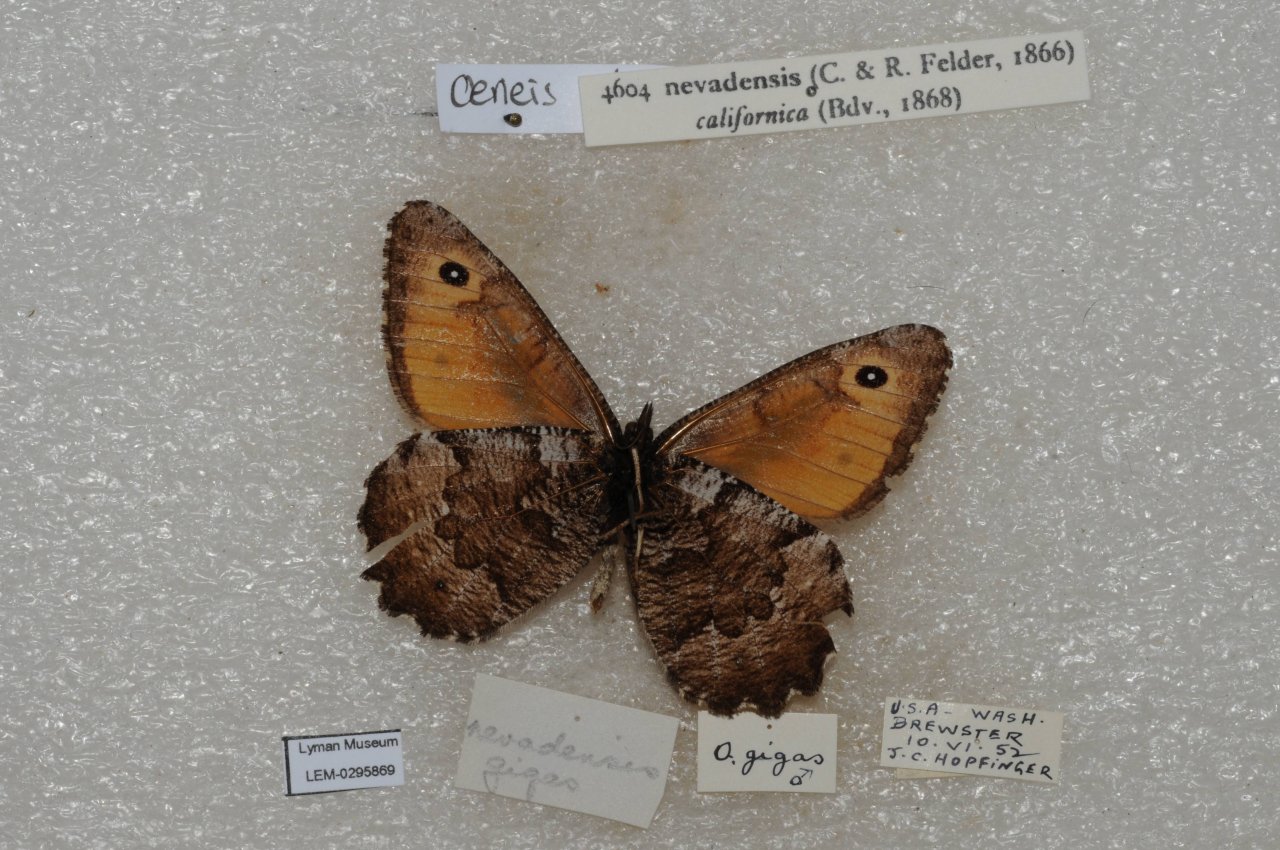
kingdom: Animalia
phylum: Arthropoda
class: Insecta
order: Lepidoptera
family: Nymphalidae
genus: Oeneis
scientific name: Oeneis nevadensis
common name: Great Arctic
